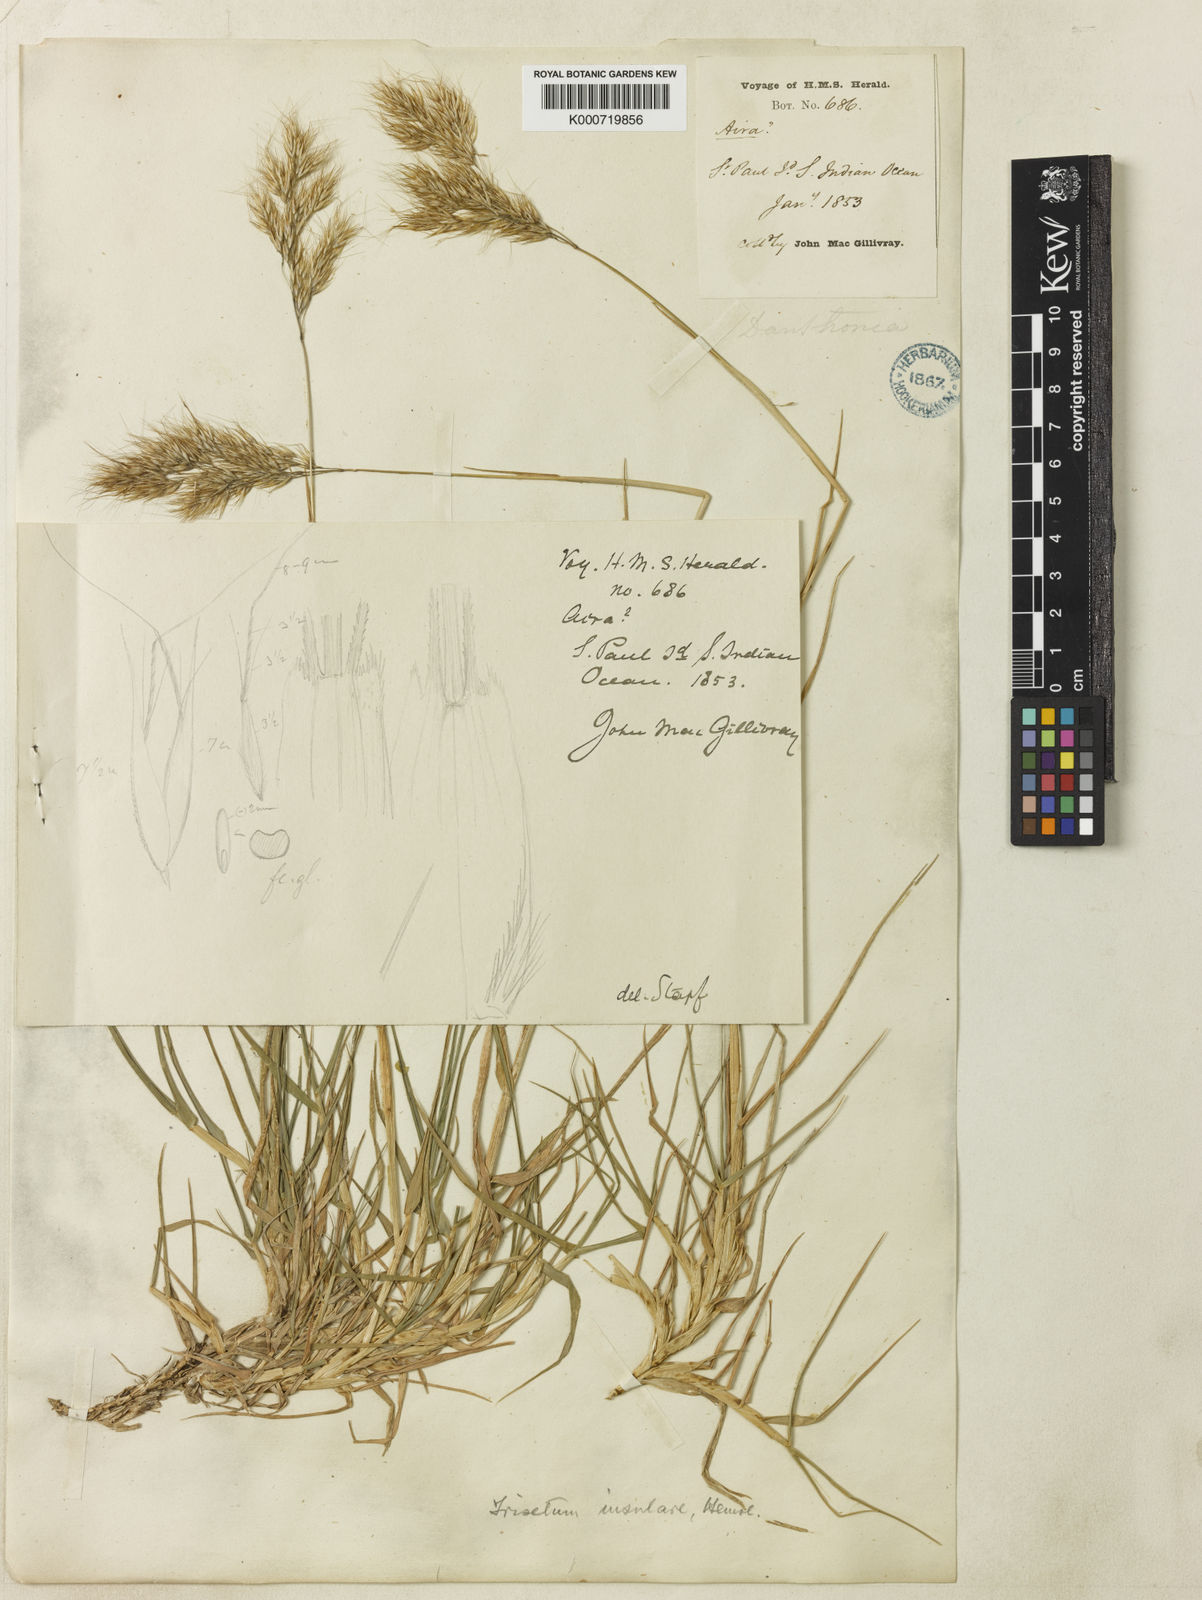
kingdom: Plantae
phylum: Tracheophyta
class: Liliopsida
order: Poales
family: Poaceae
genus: Pentameris
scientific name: Pentameris insularis
